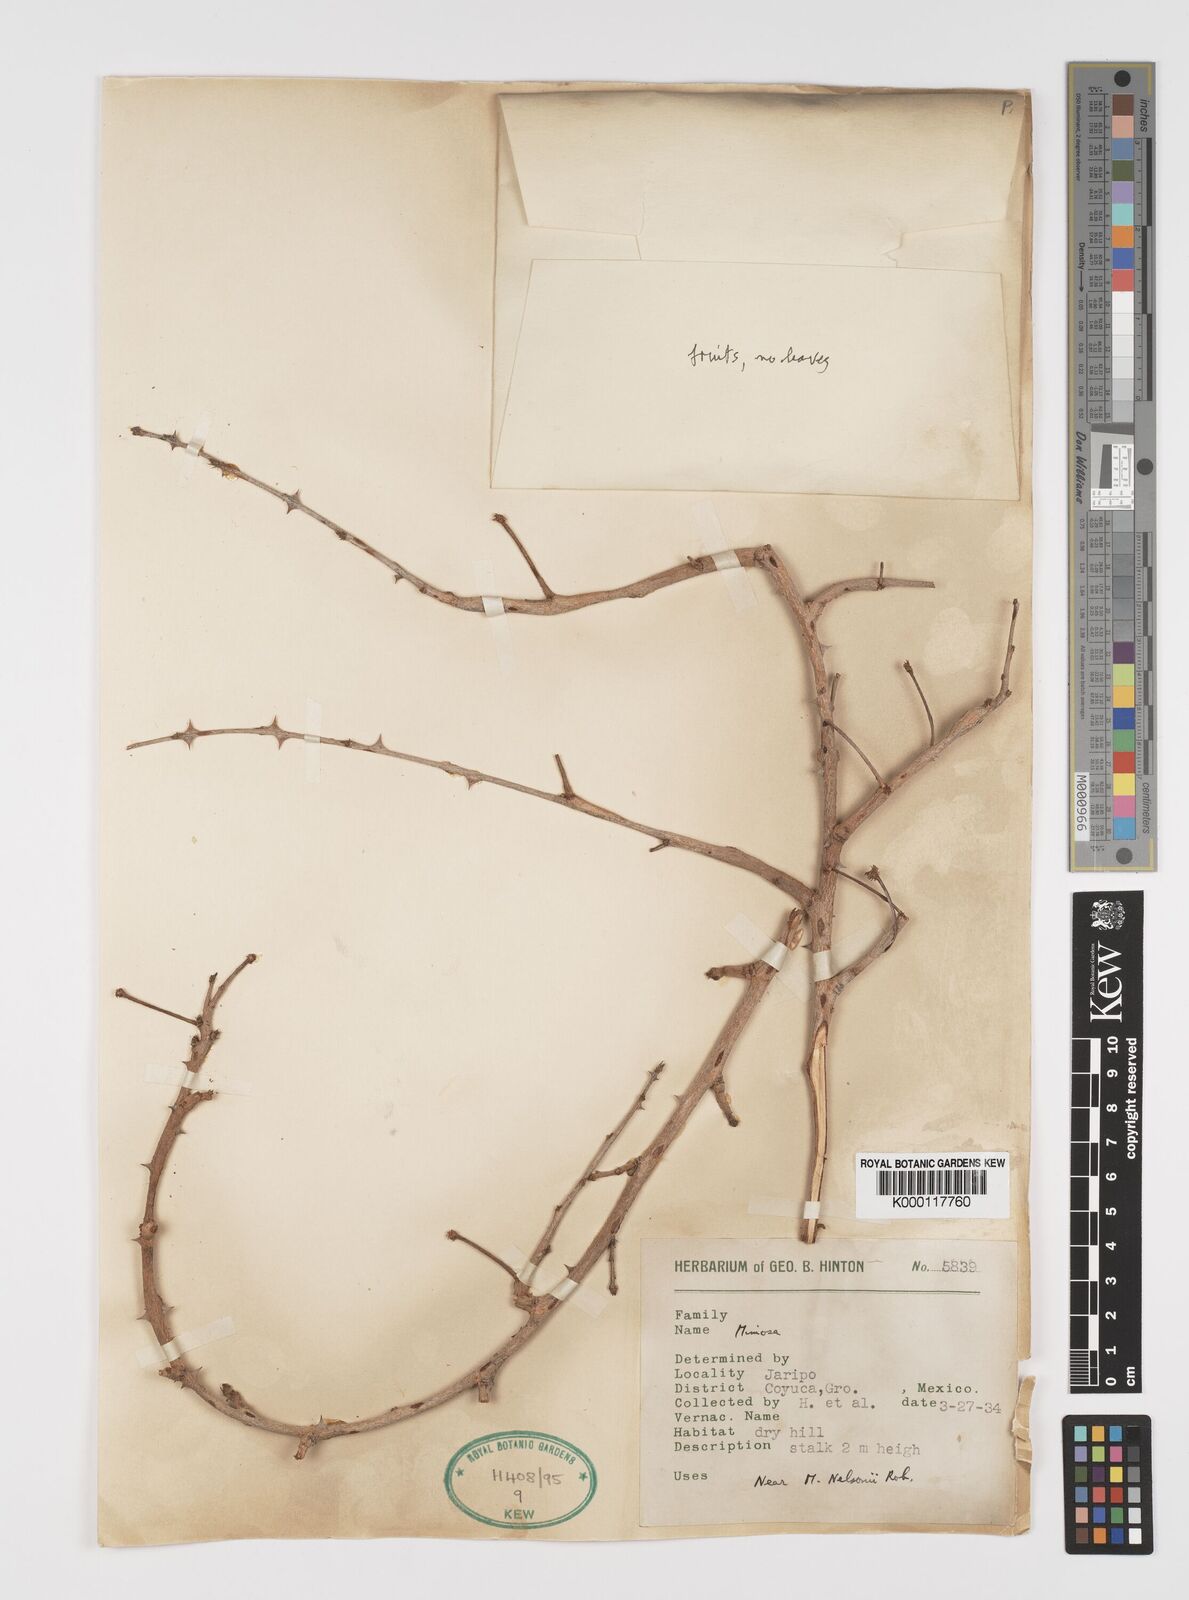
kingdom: Plantae
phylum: Tracheophyta
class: Magnoliopsida
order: Fabales
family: Fabaceae
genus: Mimosa
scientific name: Mimosa
